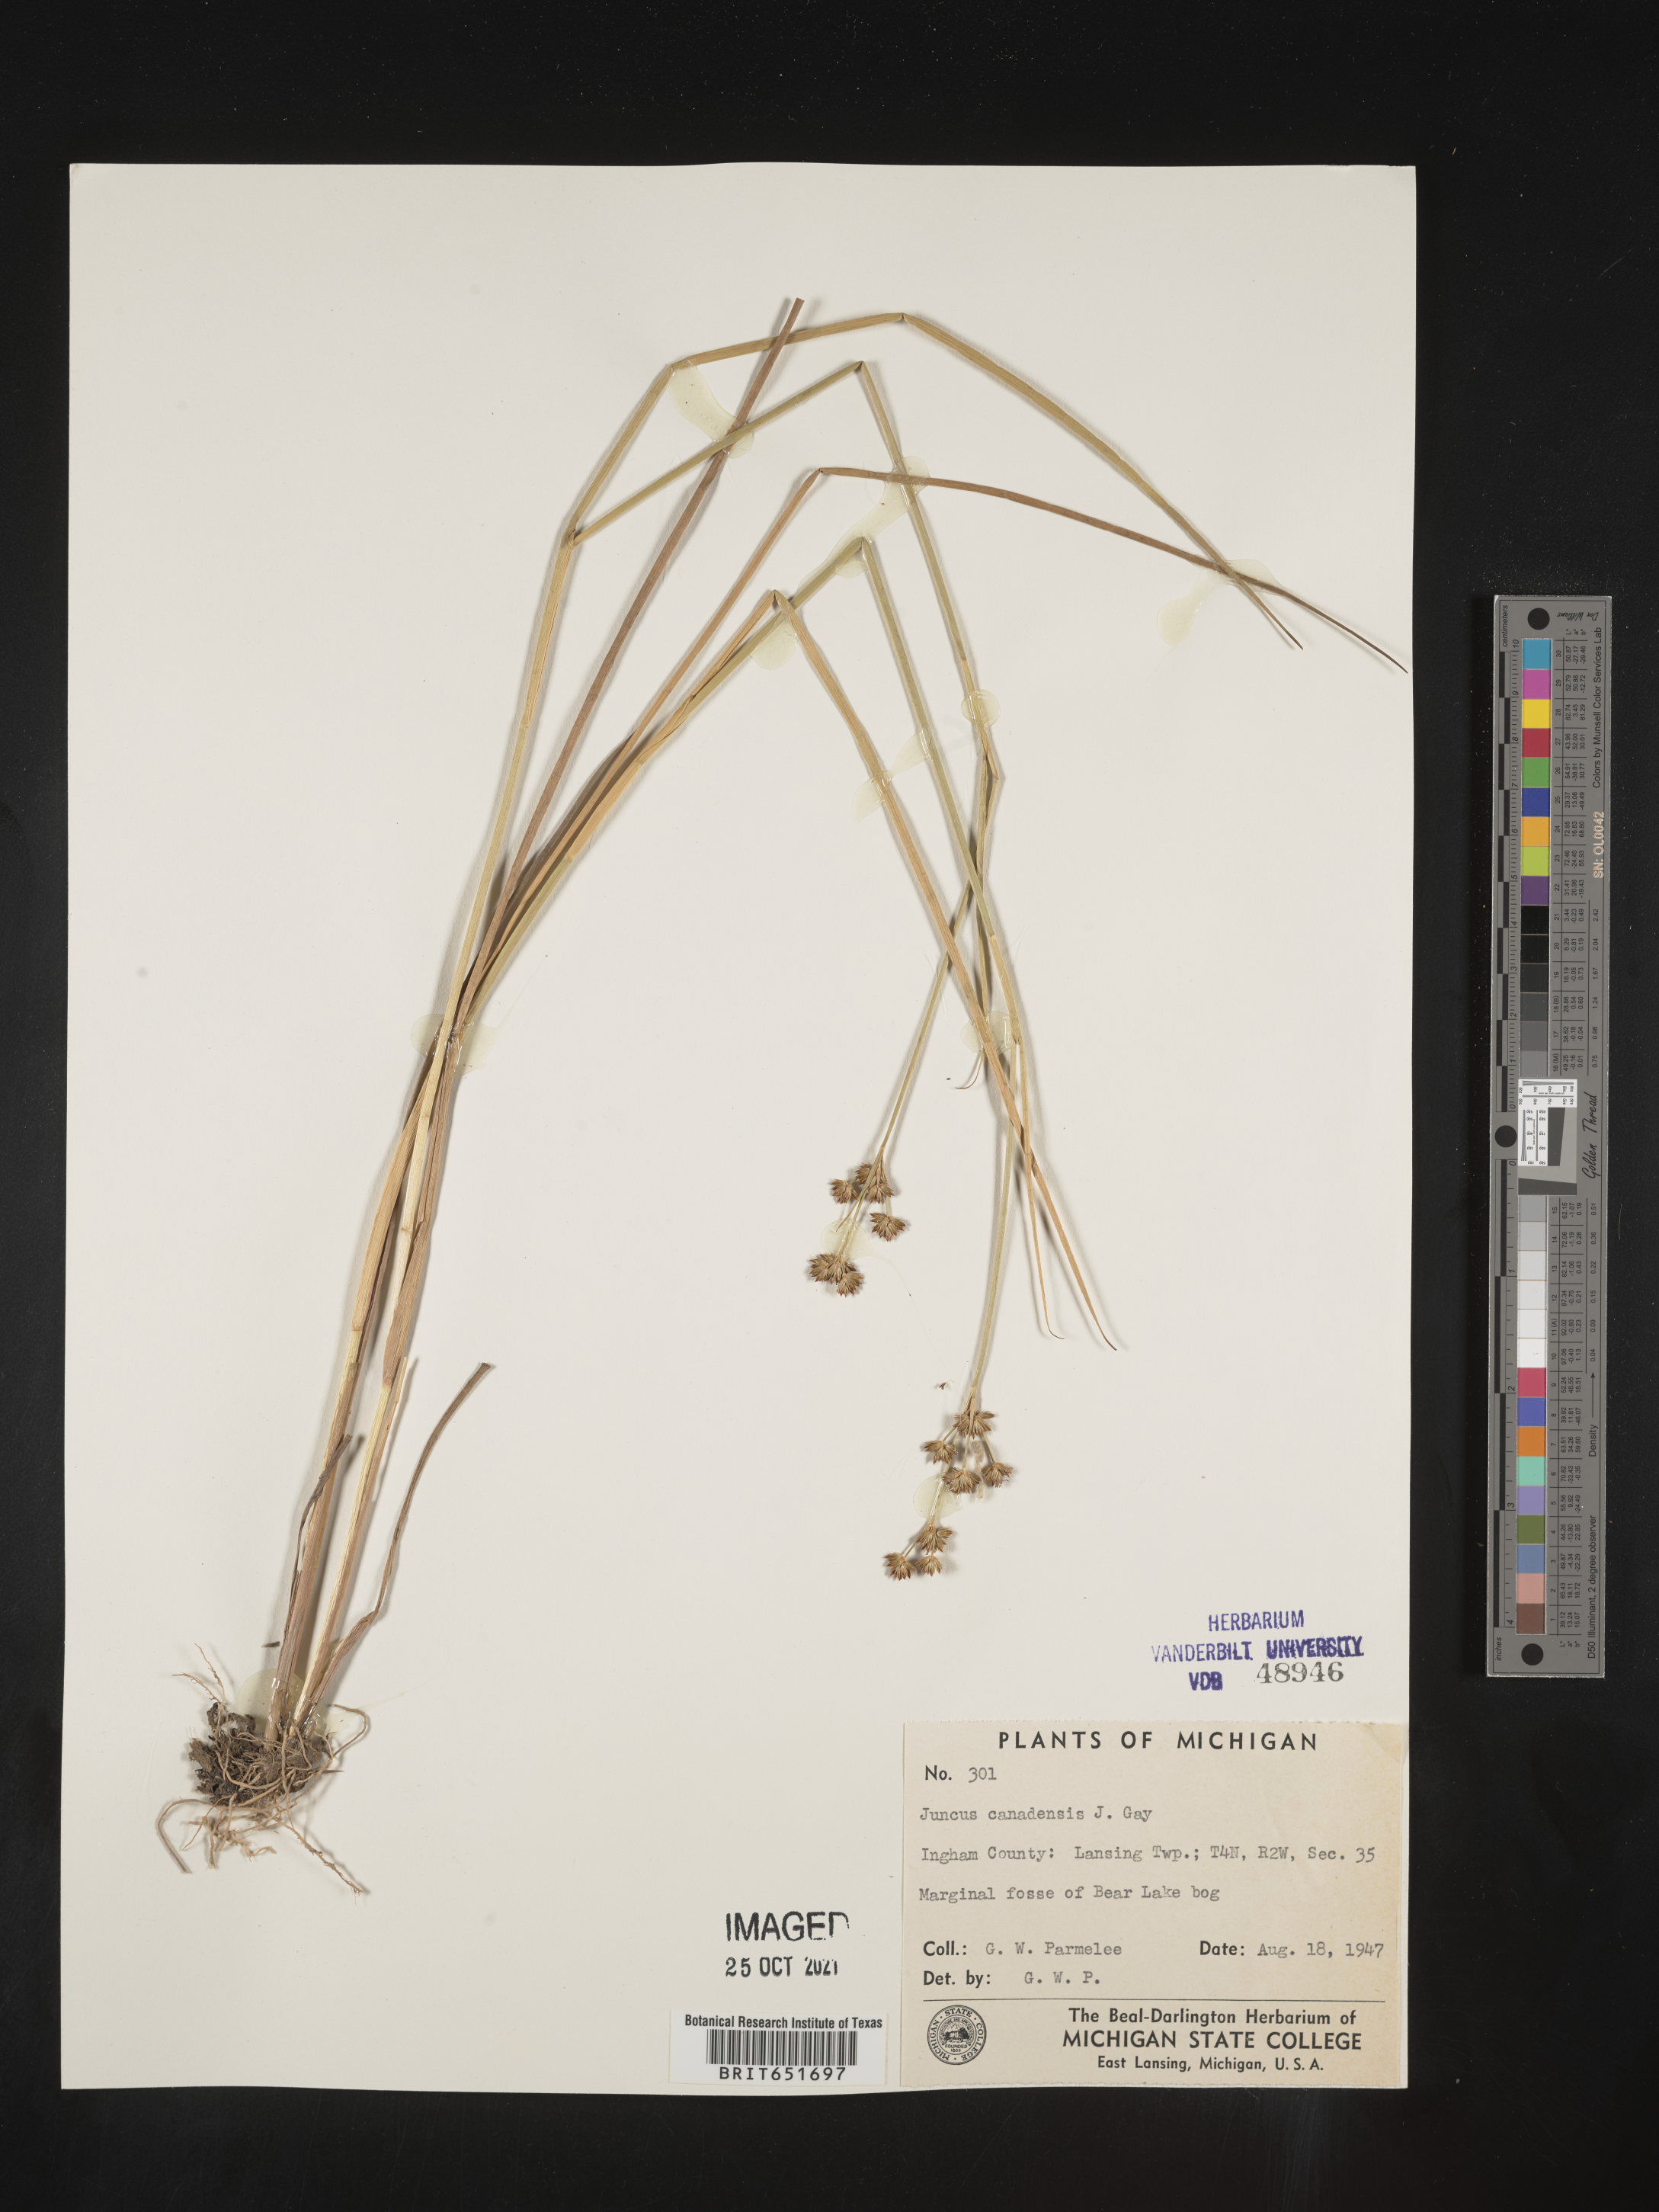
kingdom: Plantae
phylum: Tracheophyta
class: Liliopsida
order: Poales
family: Juncaceae
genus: Juncus
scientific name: Juncus canadensis
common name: Canada rush
